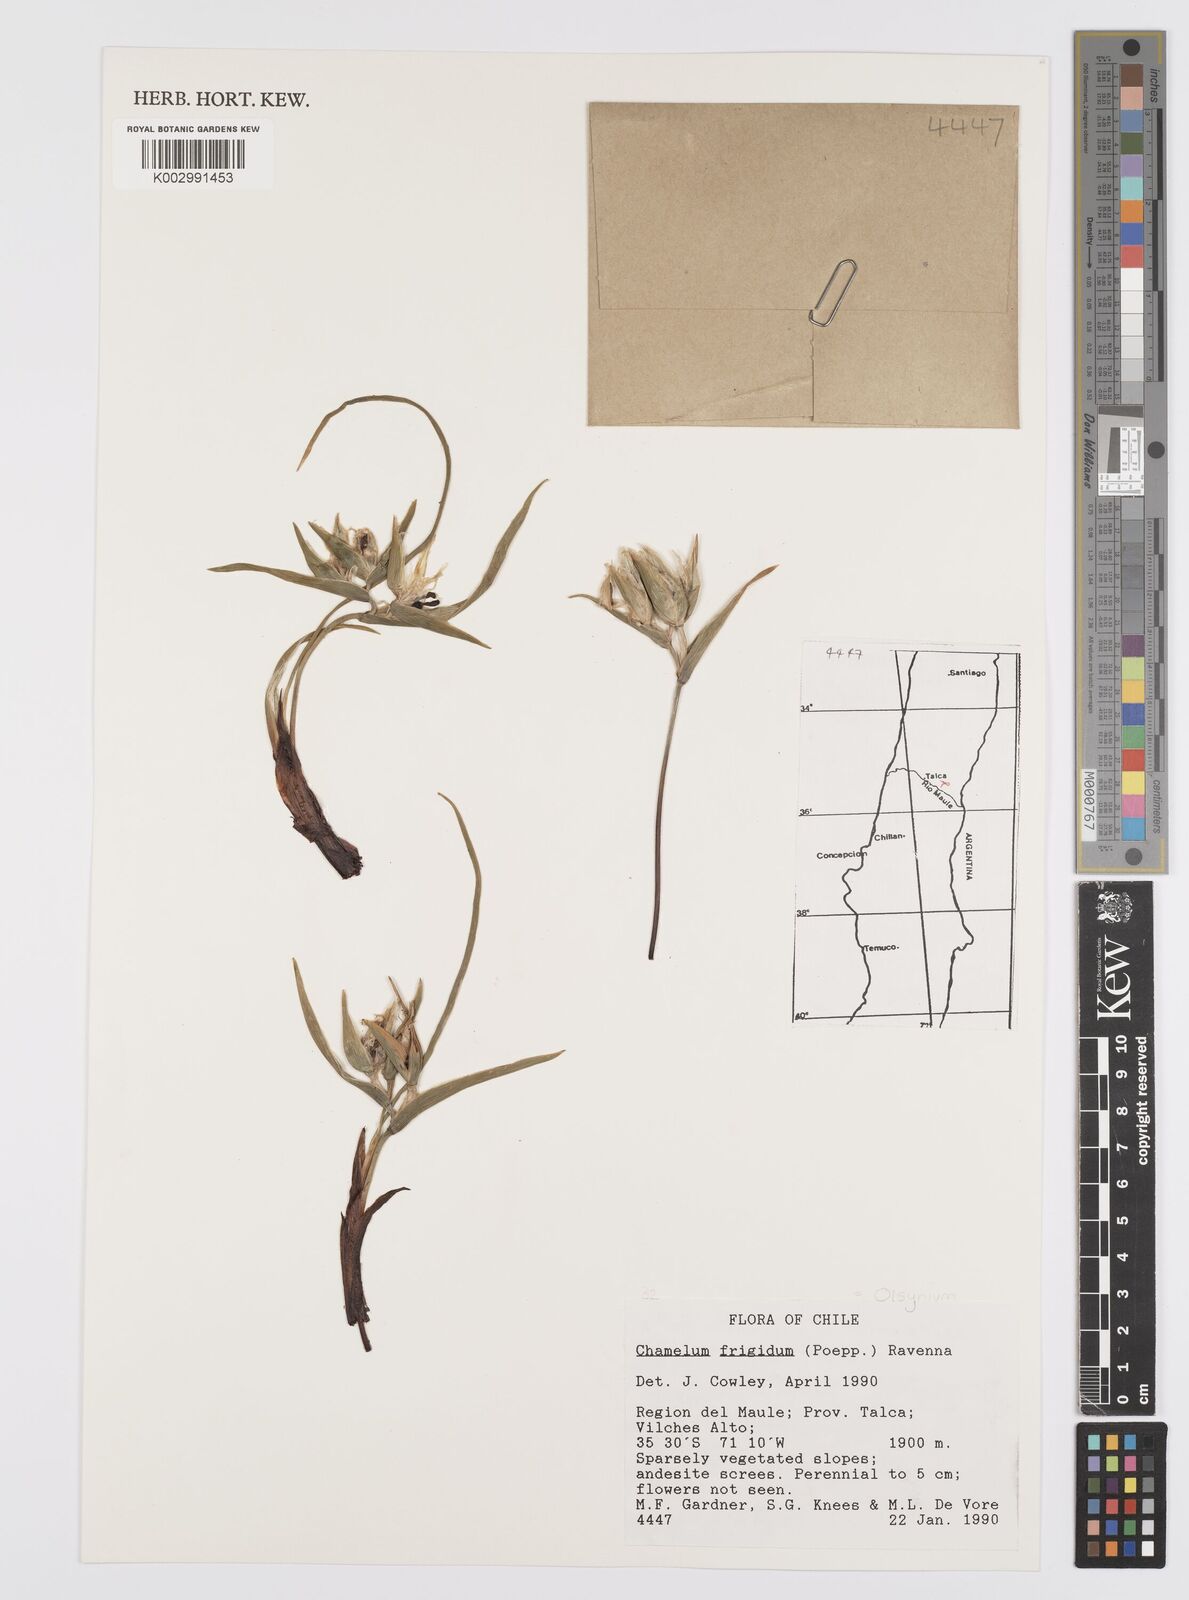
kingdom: Plantae
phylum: Tracheophyta
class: Liliopsida
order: Asparagales
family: Iridaceae
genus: Olsynium
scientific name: Olsynium obscurum
